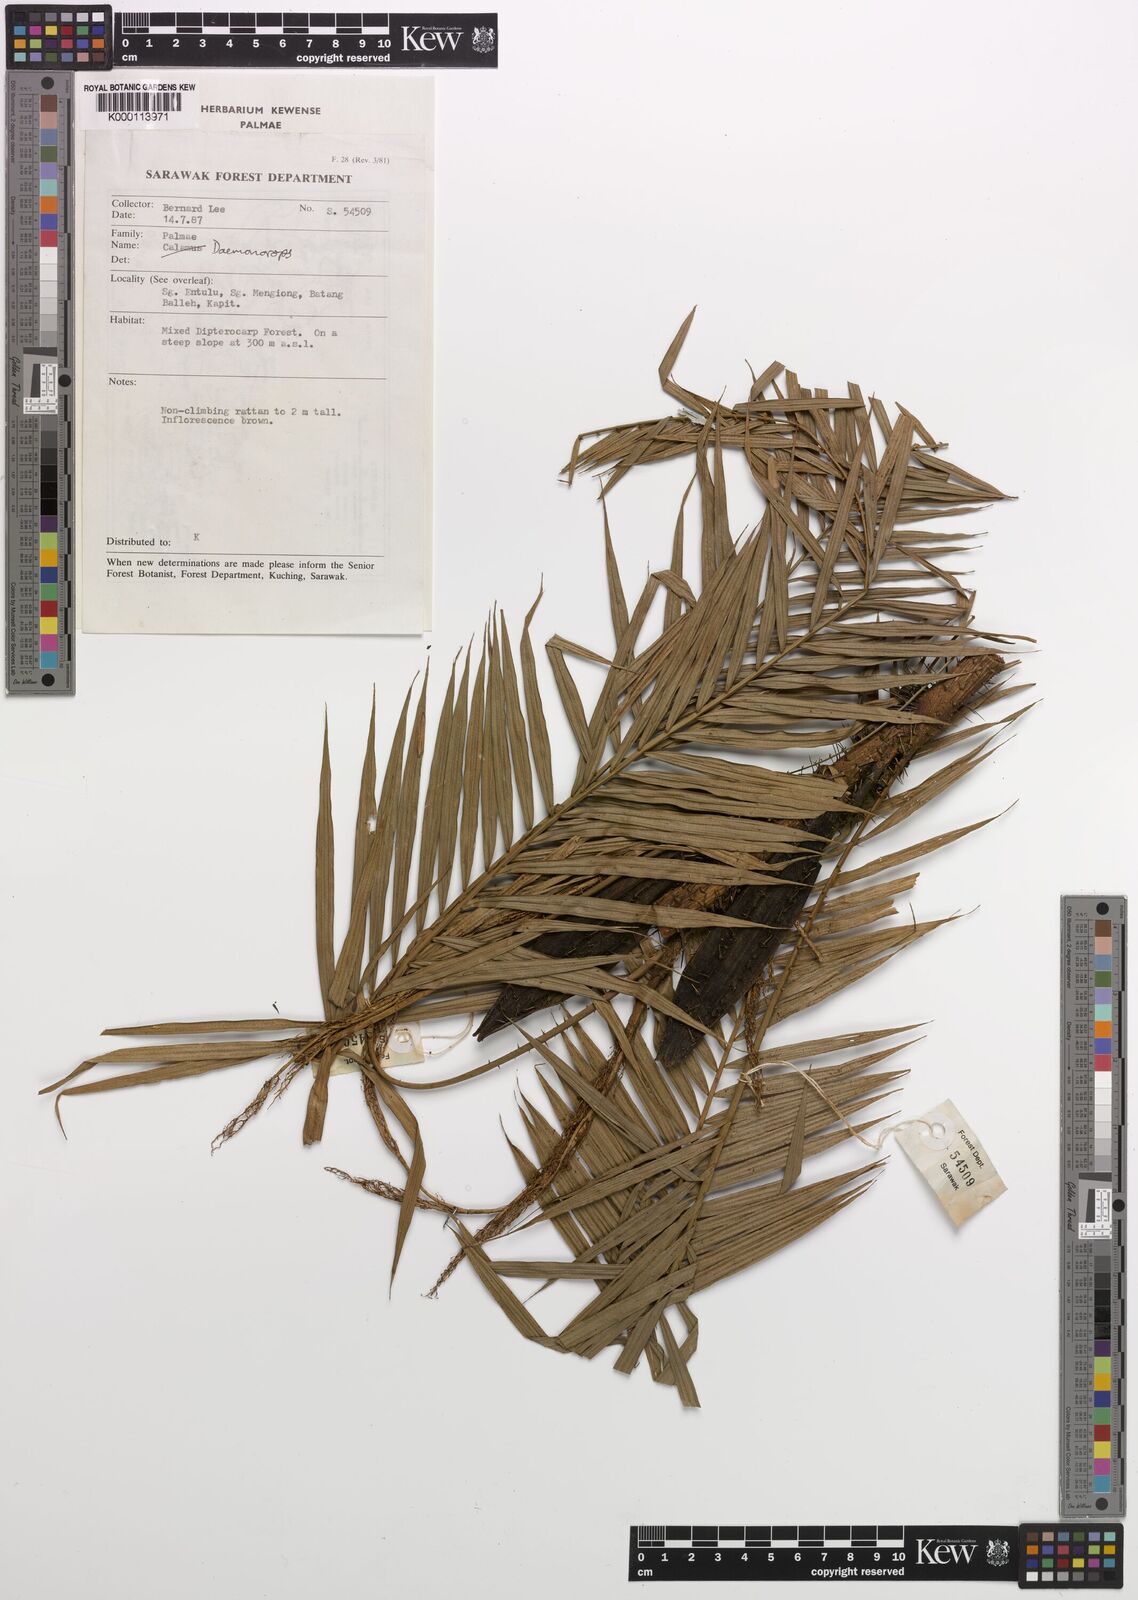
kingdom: Plantae
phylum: Tracheophyta
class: Liliopsida
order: Arecales
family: Arecaceae
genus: Daemonorops
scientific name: Daemonorops
